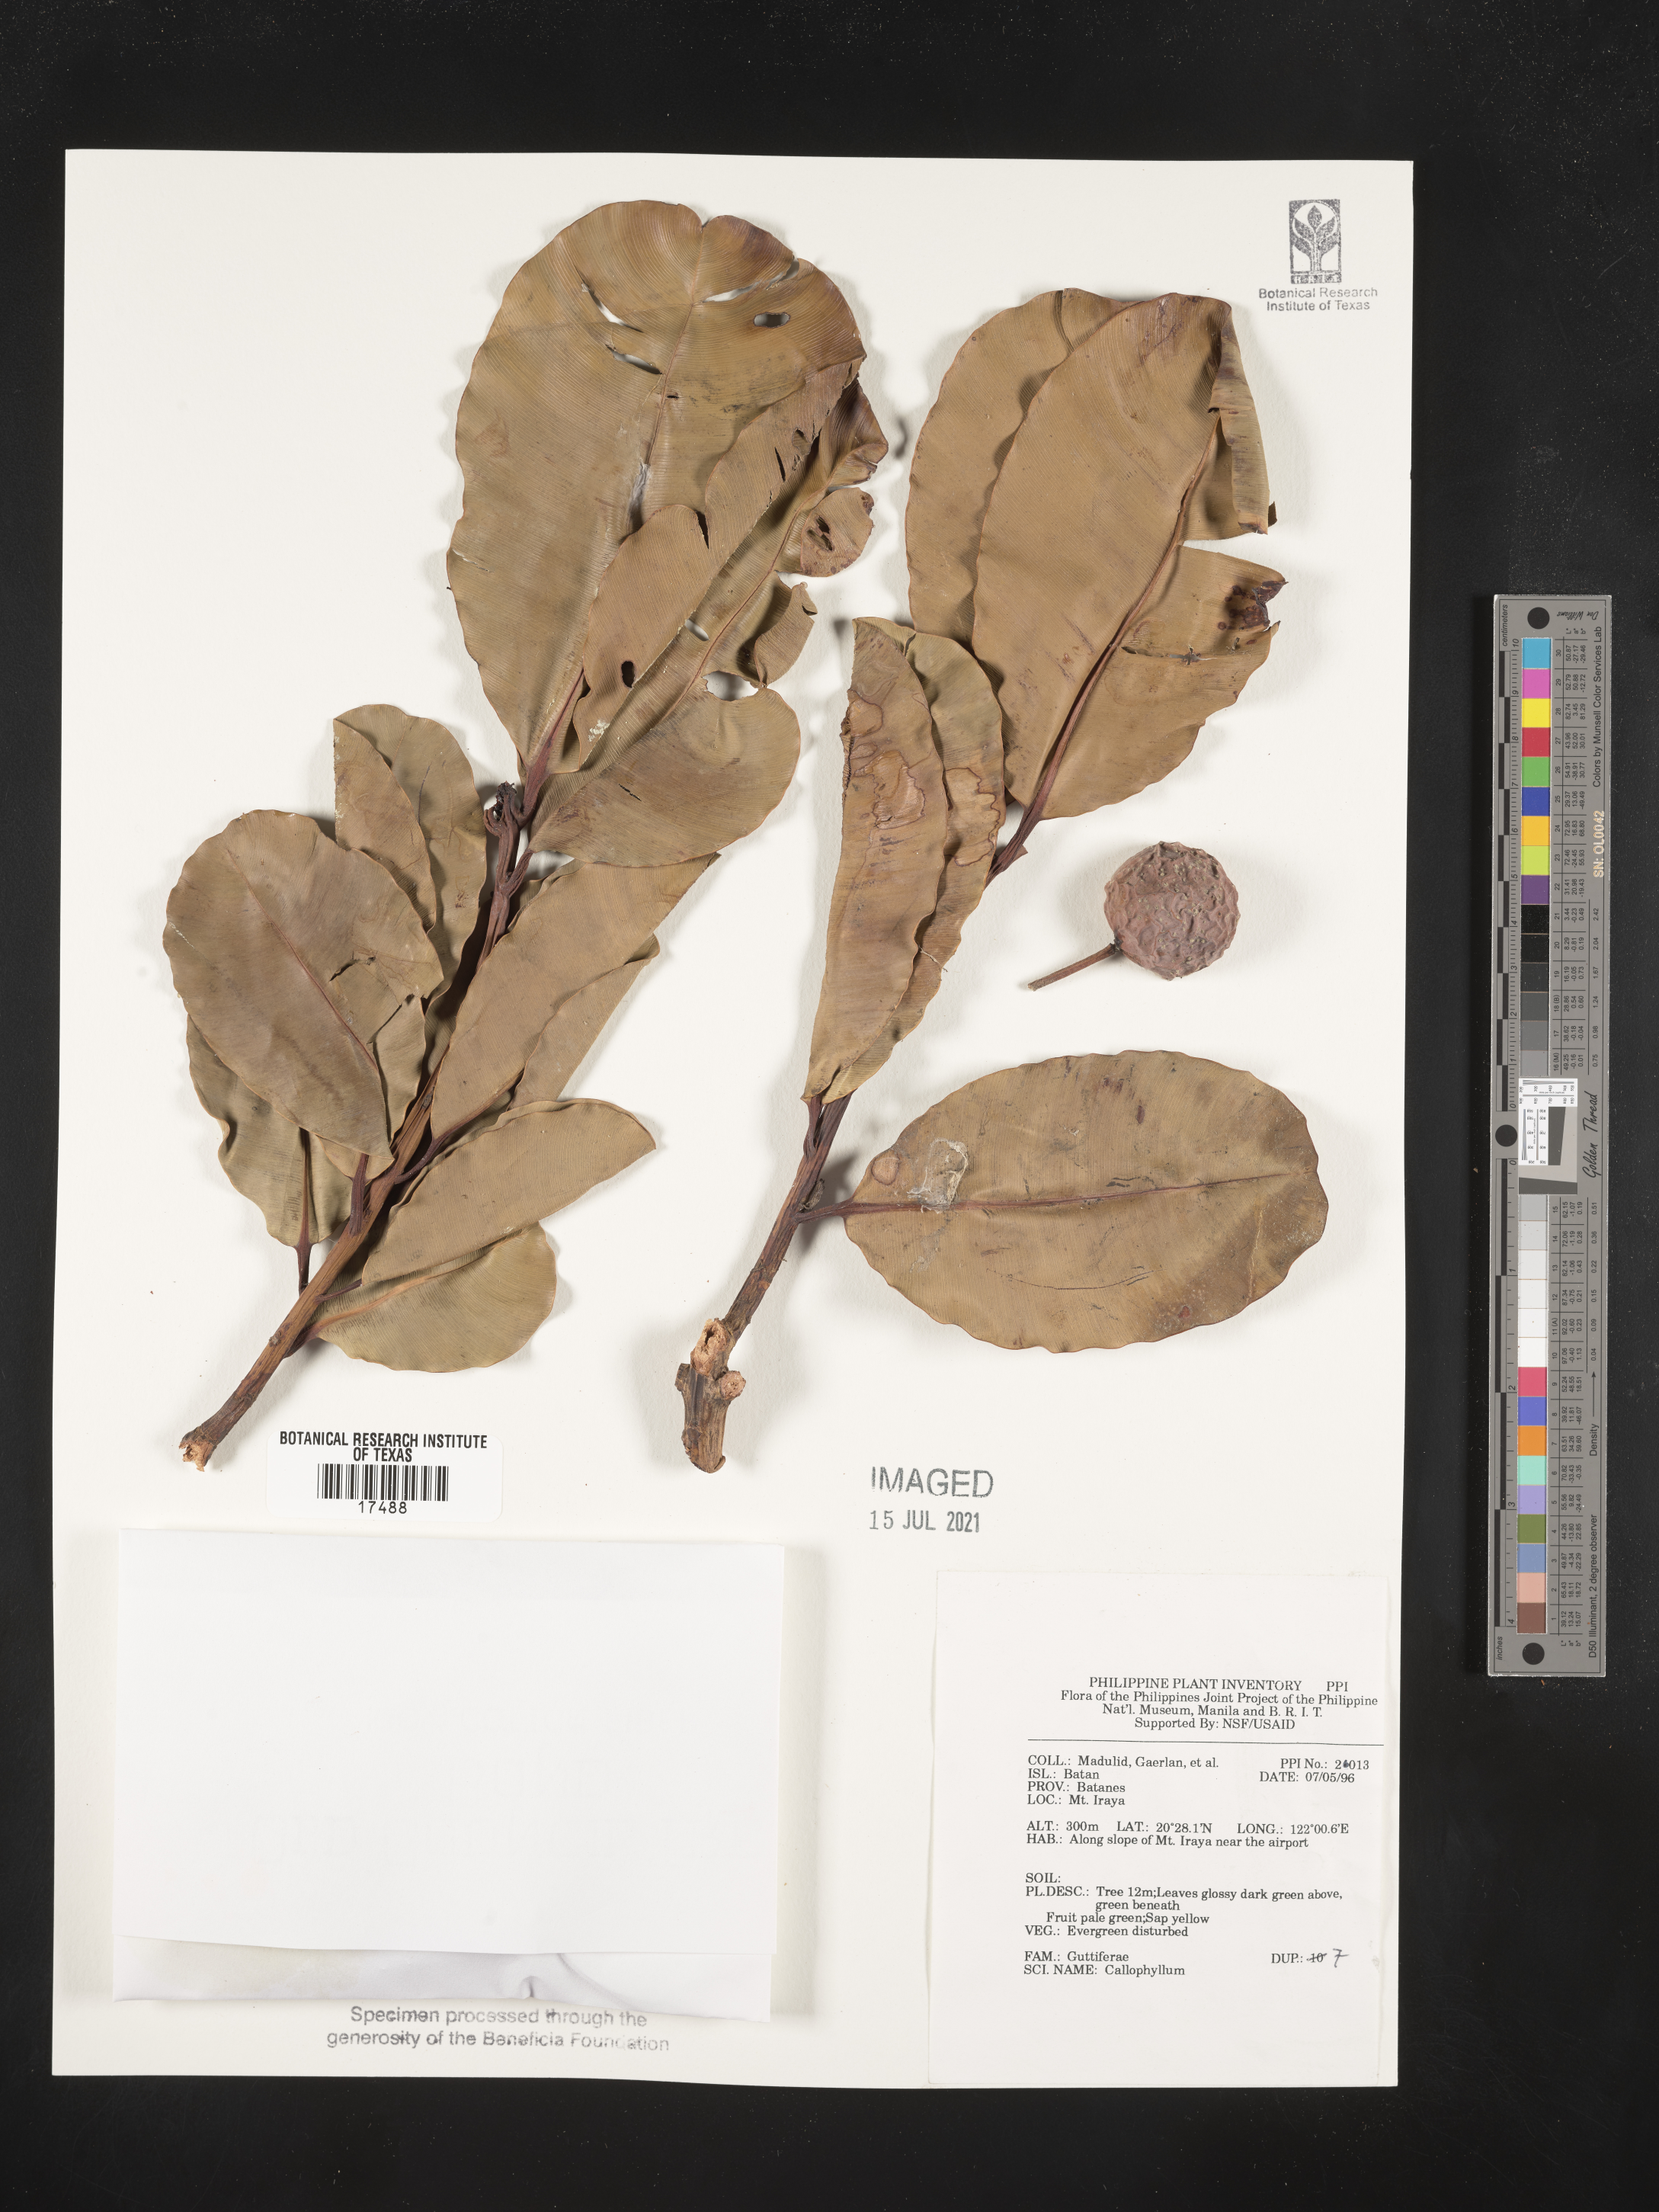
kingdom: Plantae
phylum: Tracheophyta
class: Magnoliopsida
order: Malpighiales
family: Calophyllaceae
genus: Calophyllum
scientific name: Calophyllum
